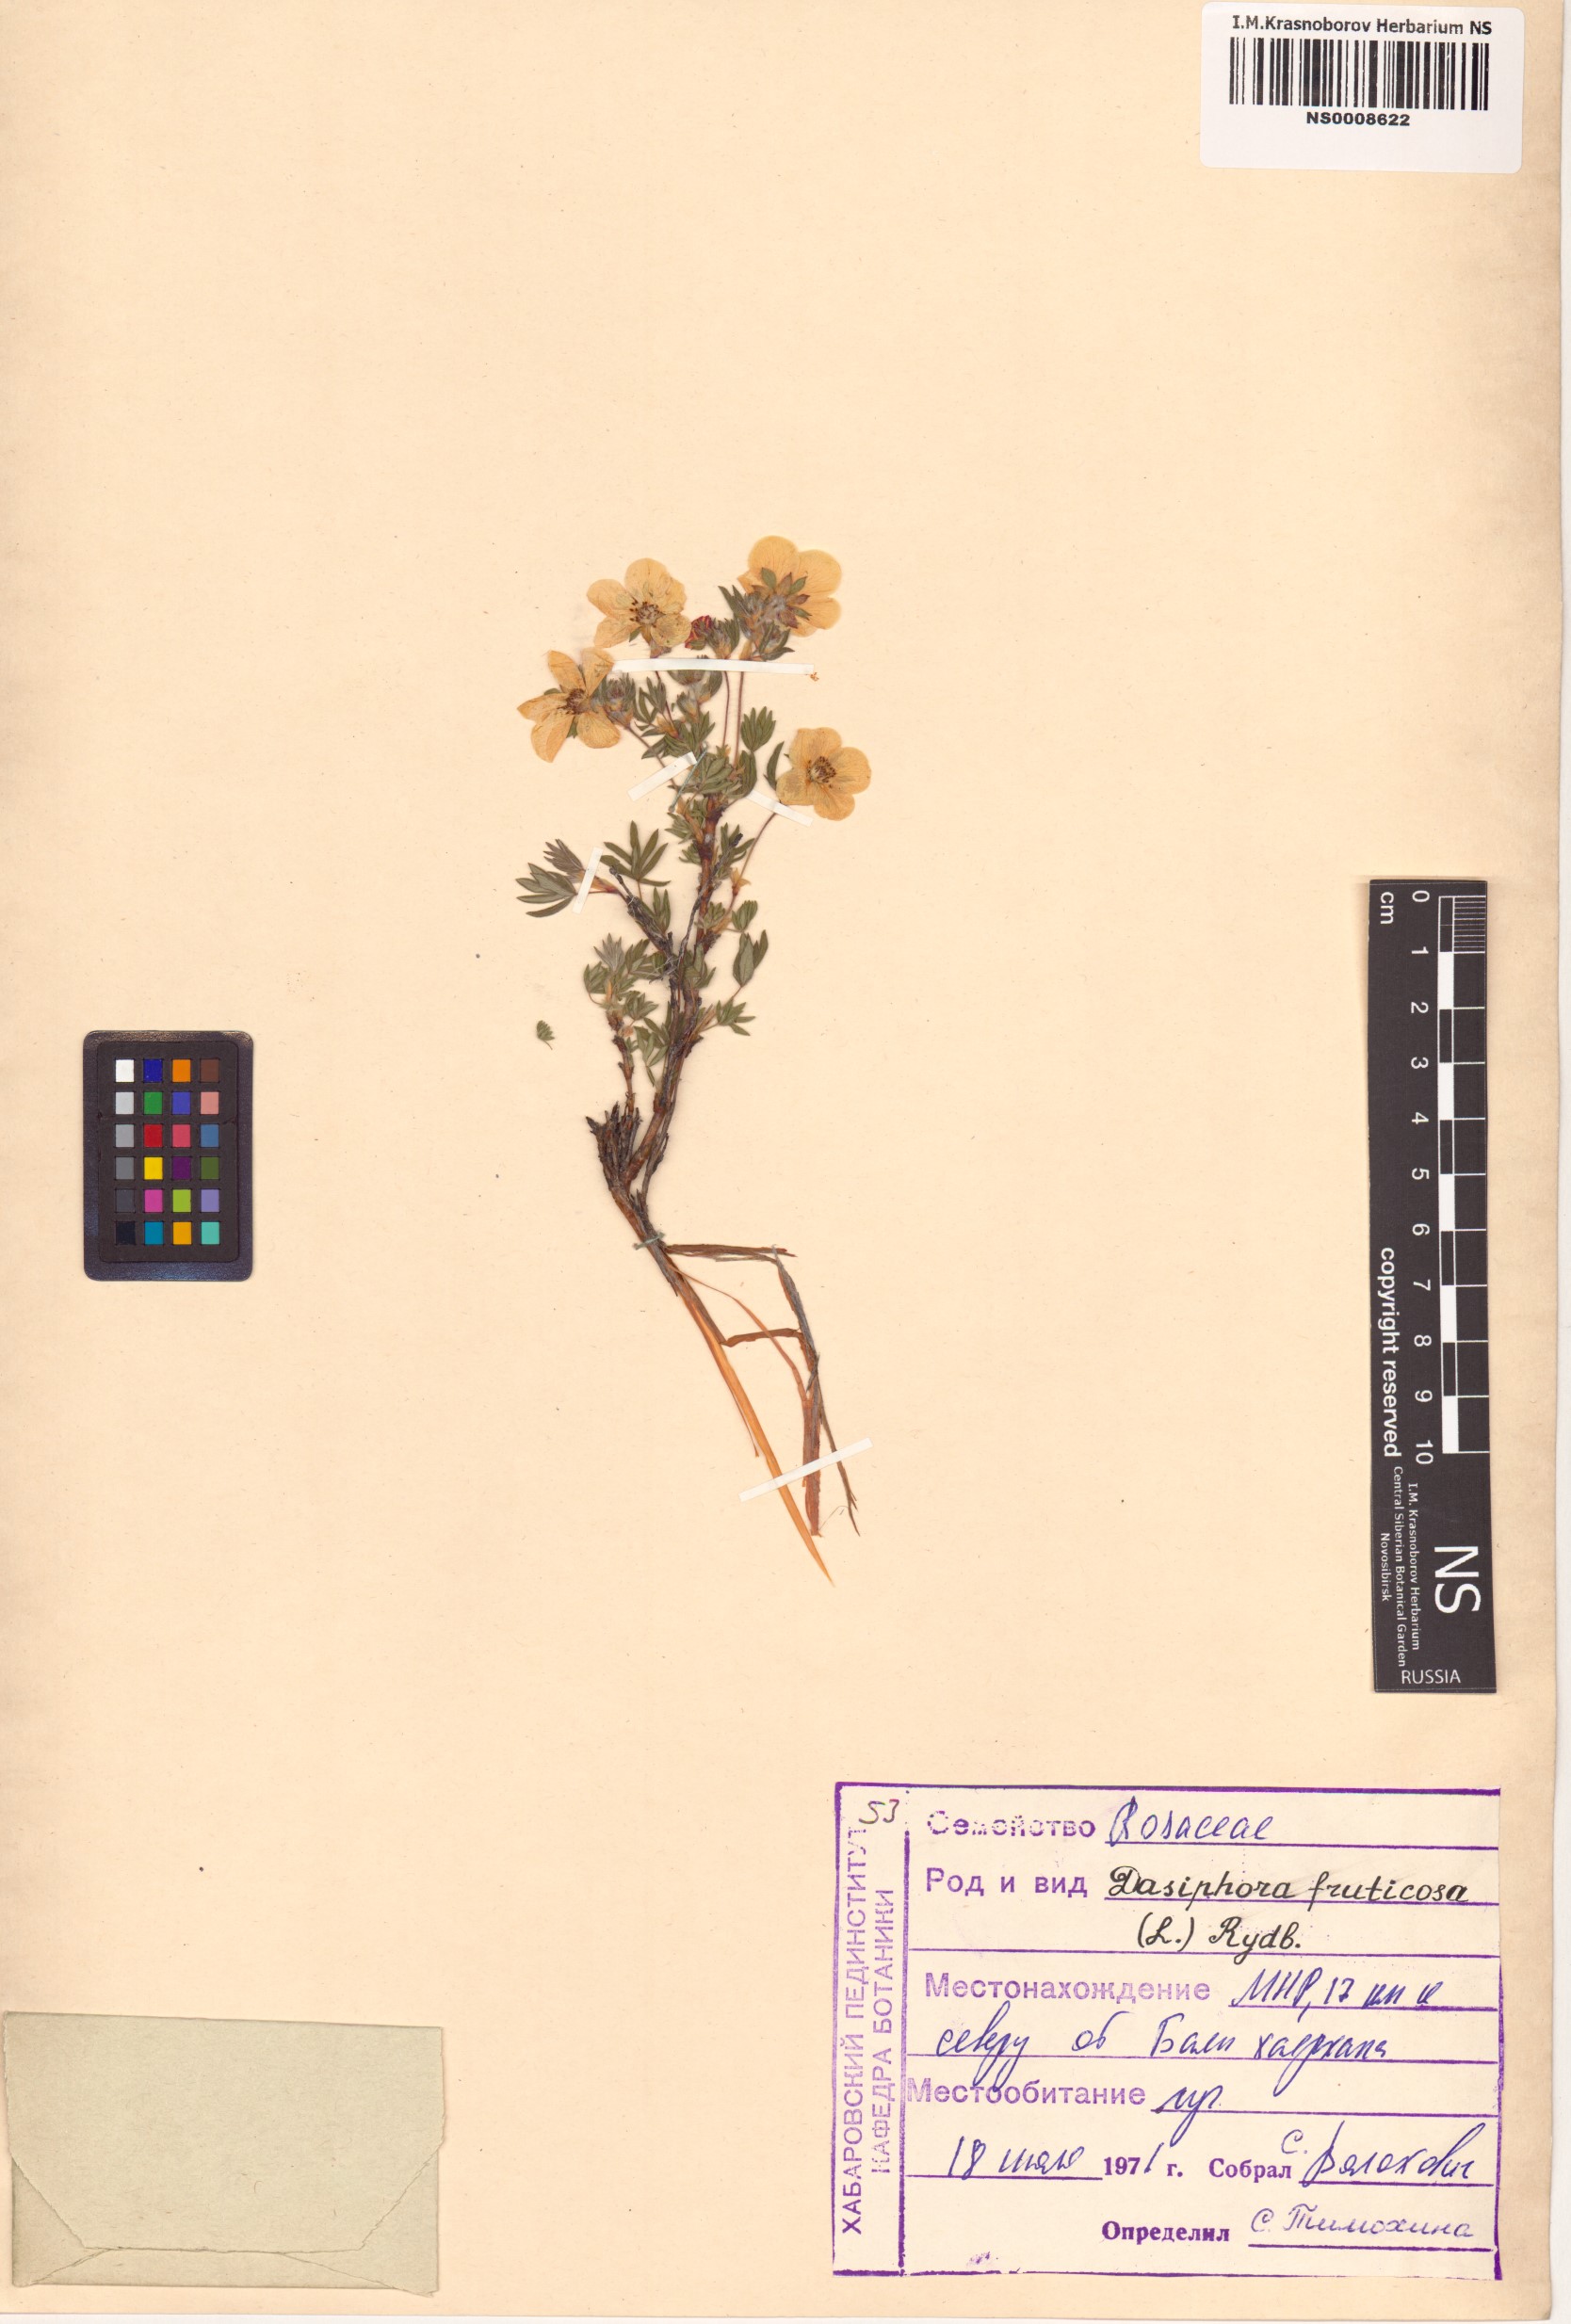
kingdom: Plantae
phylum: Tracheophyta
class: Magnoliopsida
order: Rosales
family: Rosaceae
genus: Dasiphora
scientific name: Dasiphora fruticosa
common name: Shrubby cinquefoil
